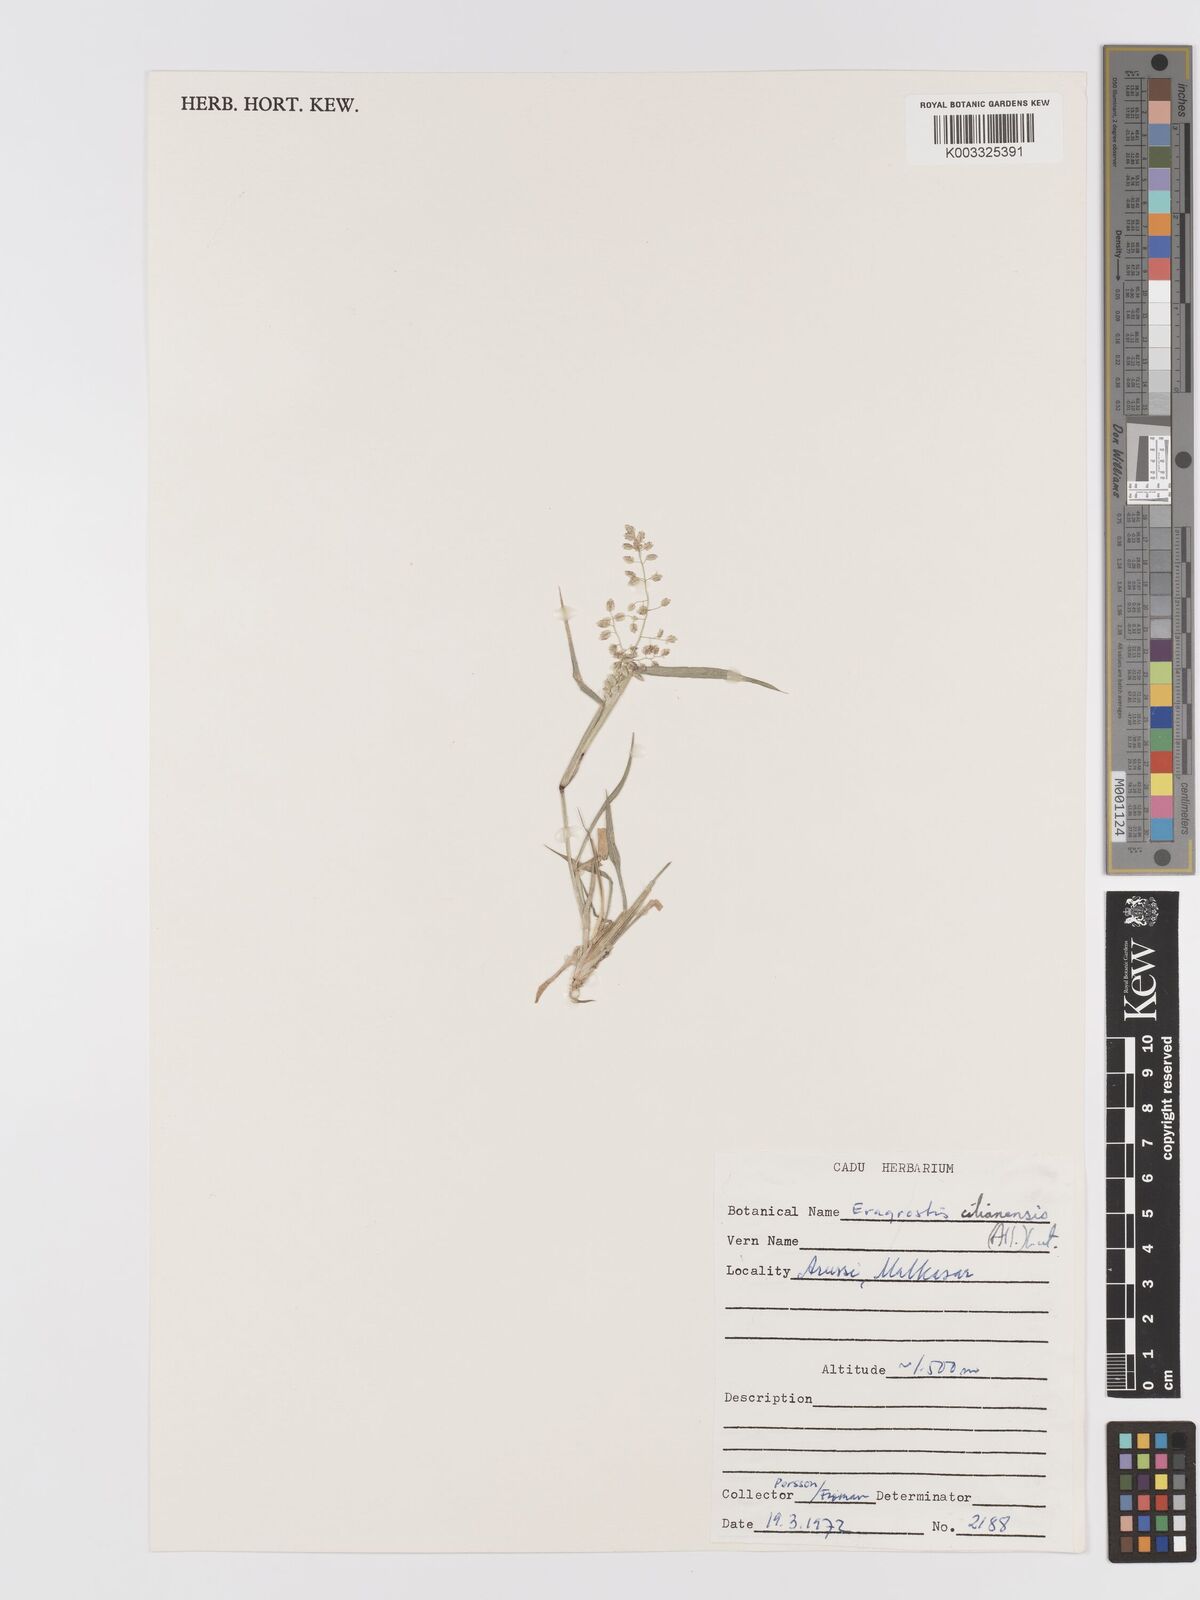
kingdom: Plantae
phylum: Tracheophyta
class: Liliopsida
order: Poales
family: Poaceae
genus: Eragrostis
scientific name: Eragrostis cilianensis
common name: Stinkgrass
